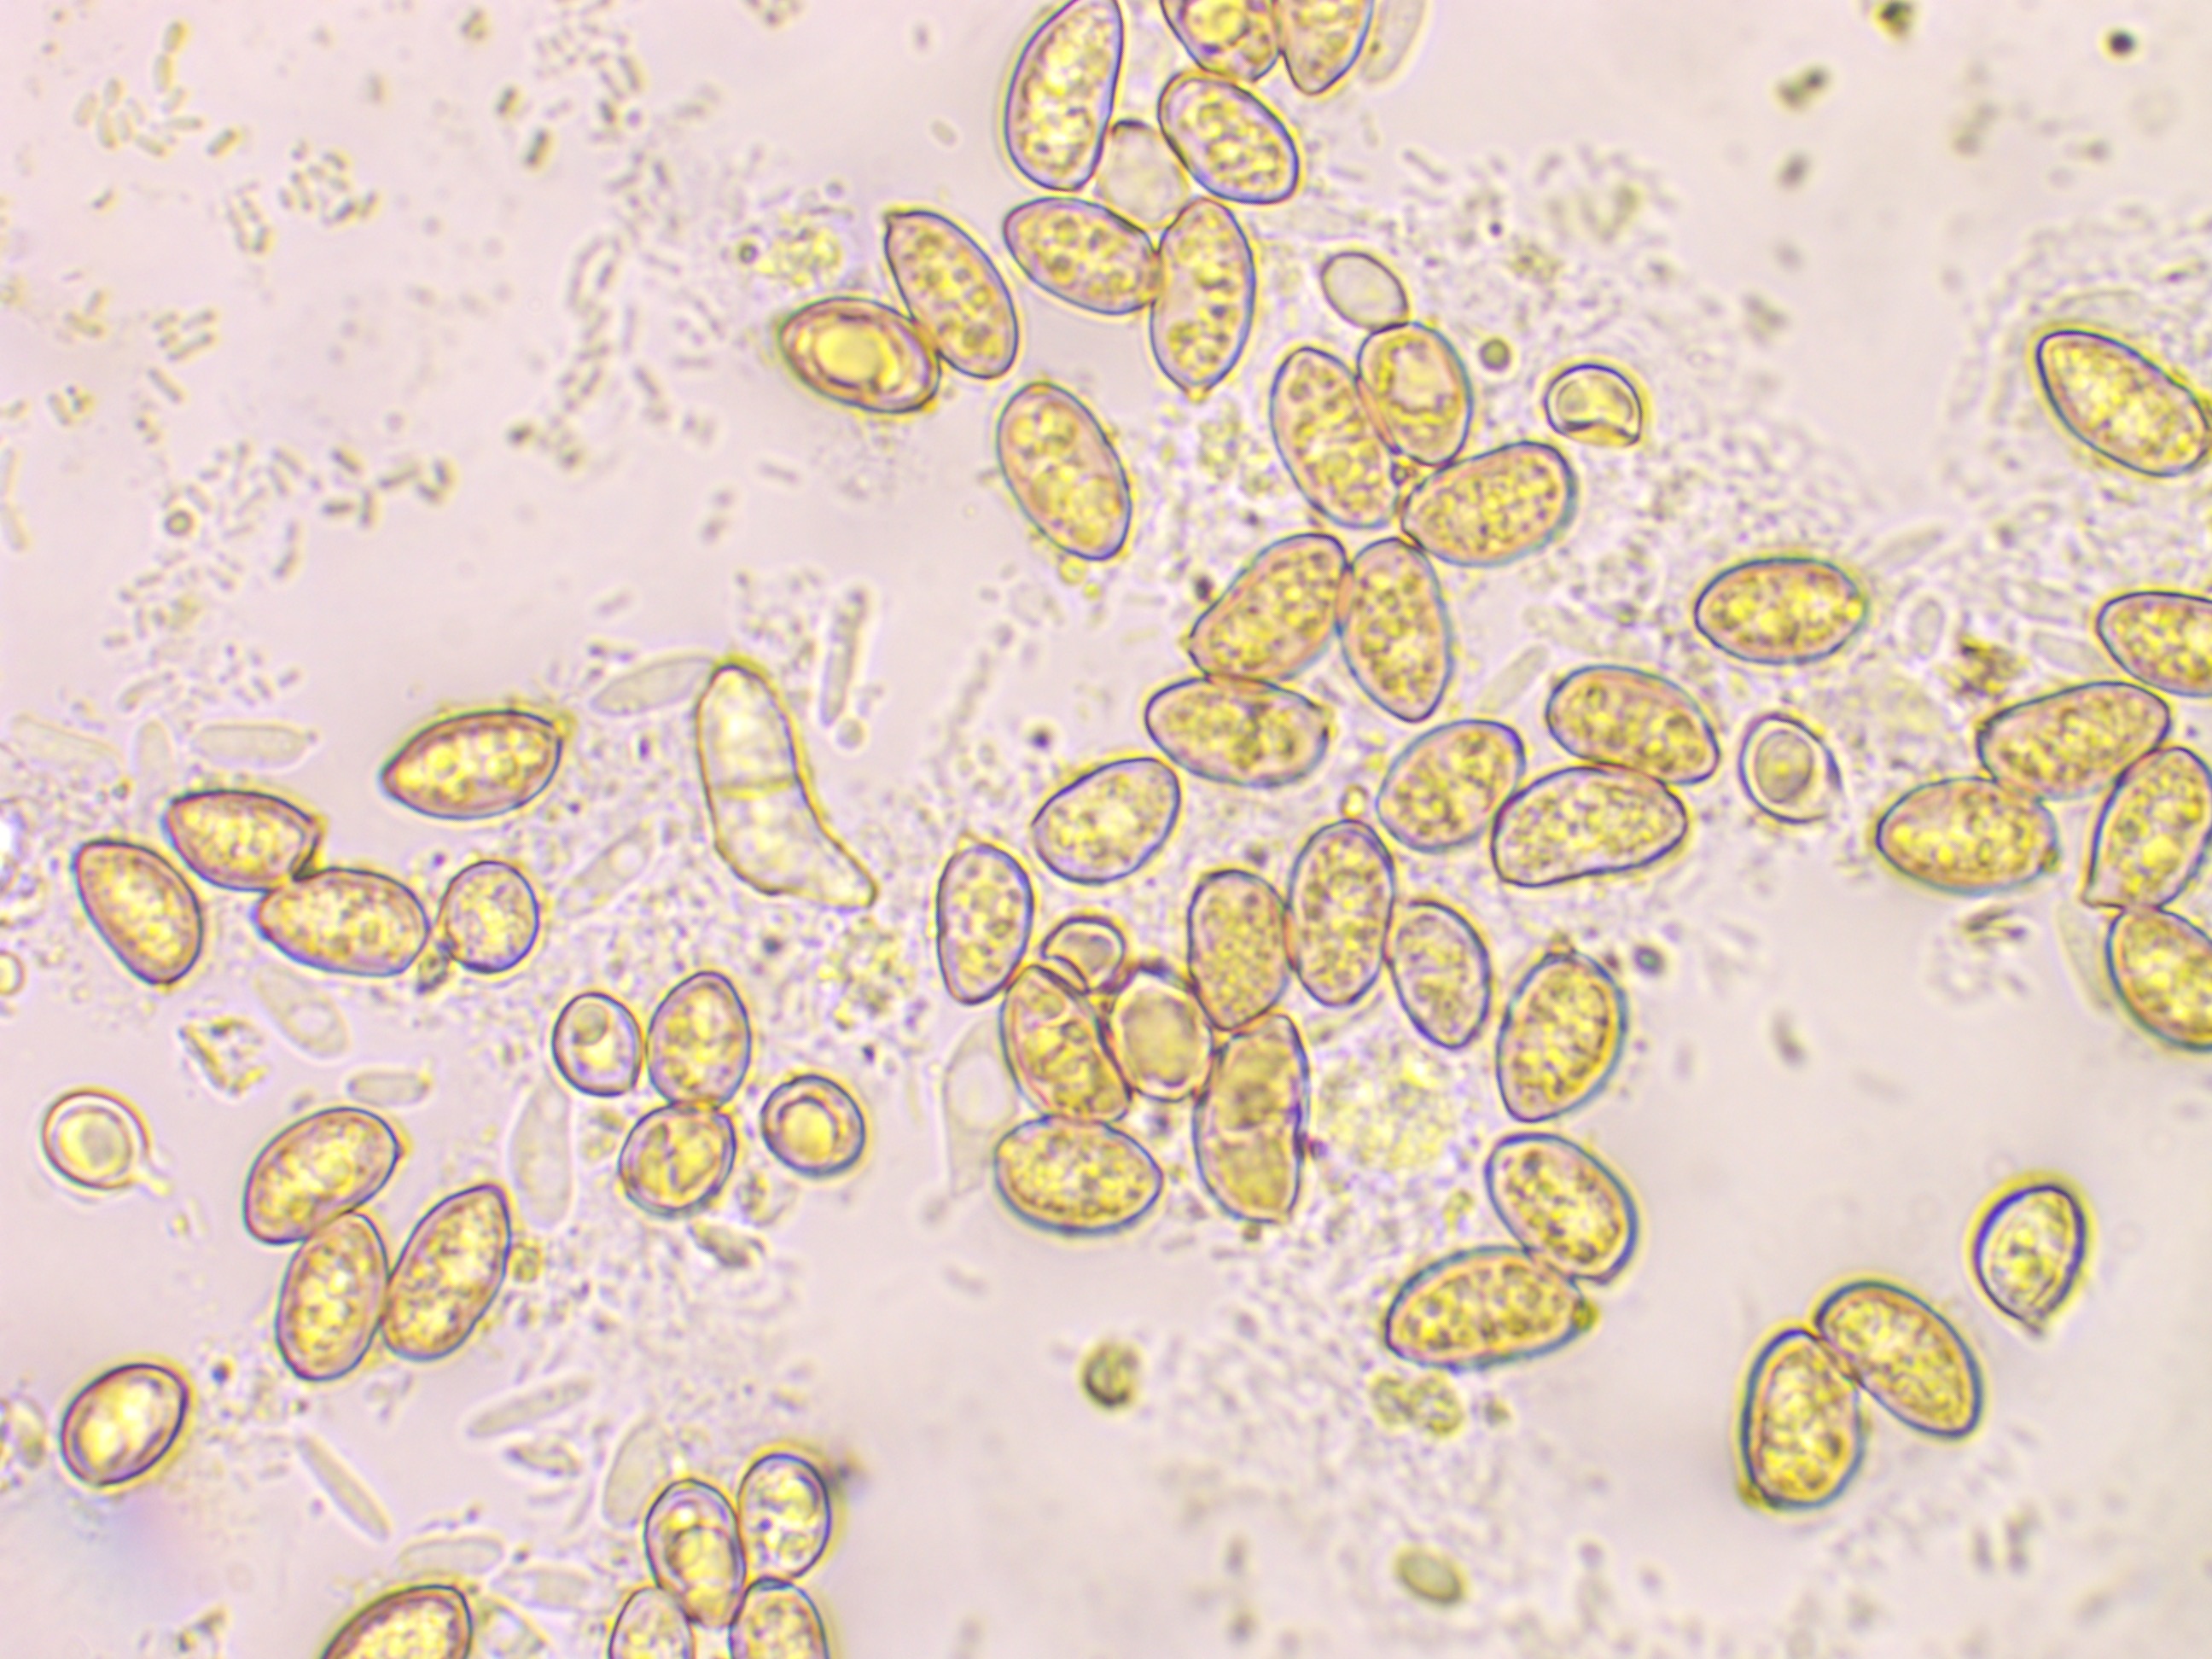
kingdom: Fungi
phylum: Basidiomycota
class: Agaricomycetes
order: Agaricales
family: Inocybaceae
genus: Inocybe
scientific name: Inocybe
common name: trævlhat
